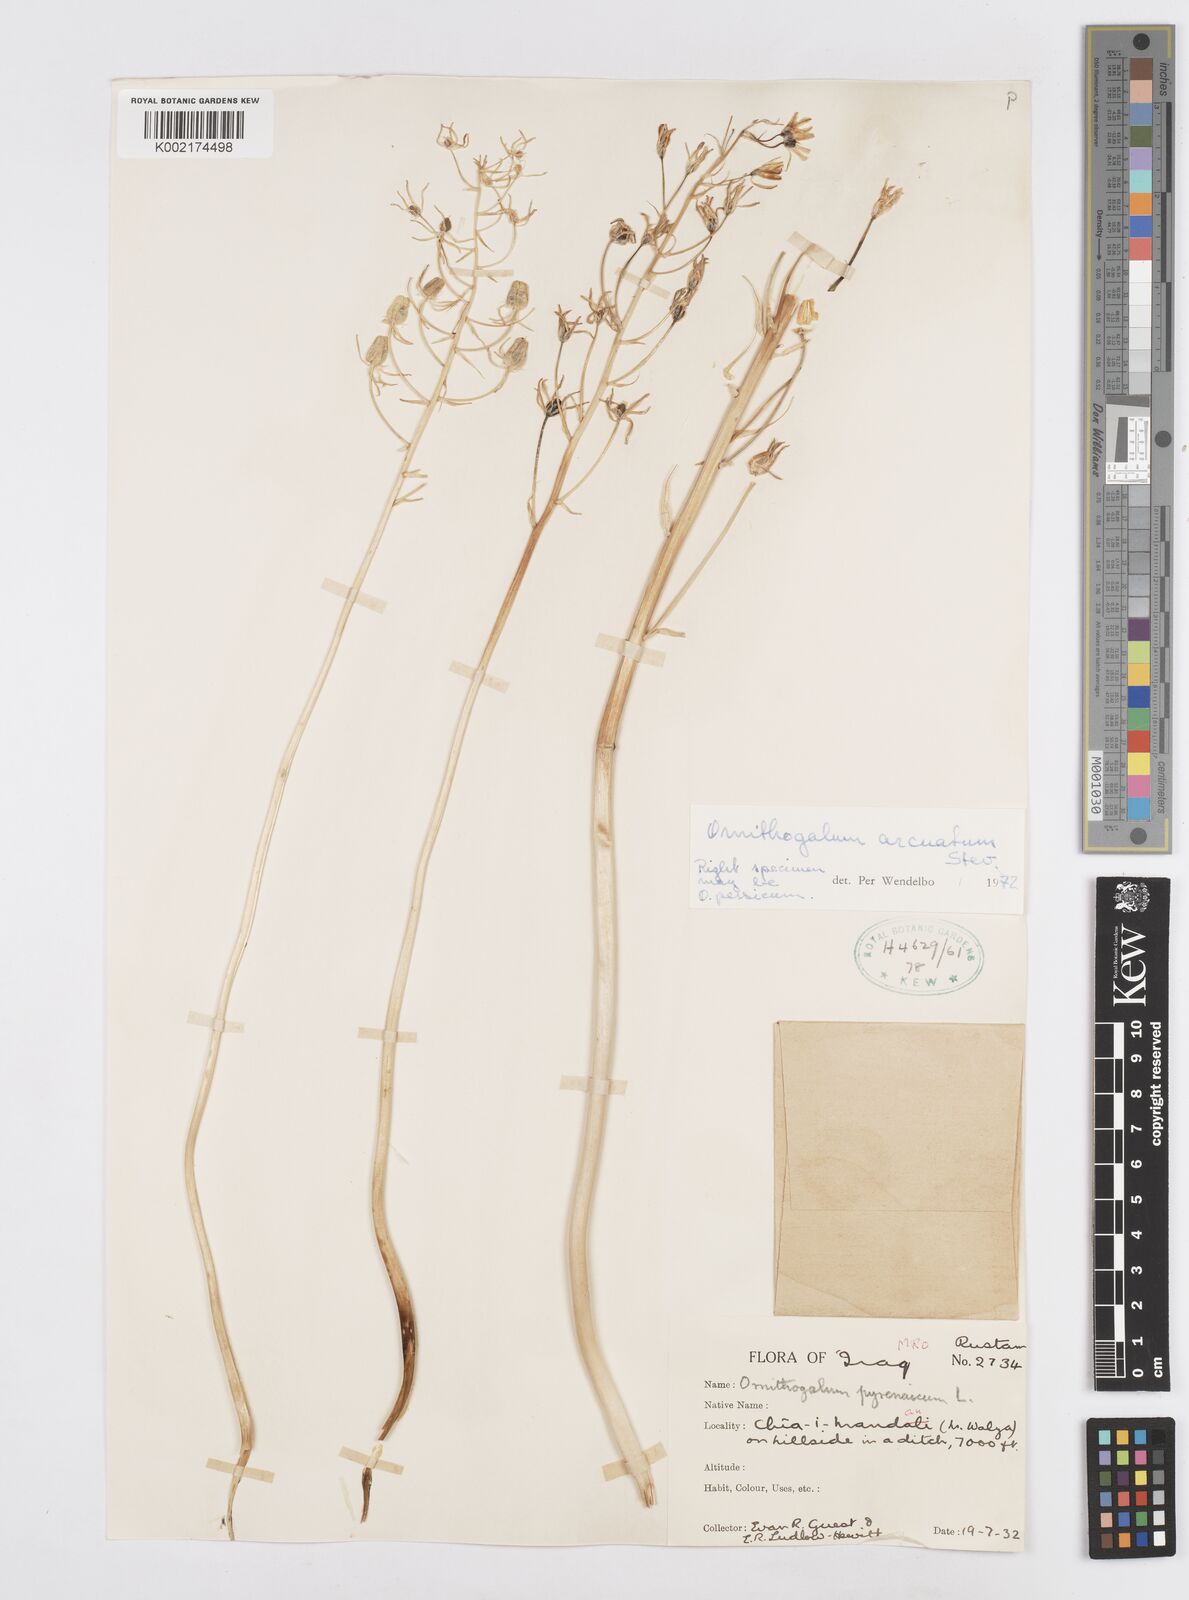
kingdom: Plantae
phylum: Tracheophyta
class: Liliopsida
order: Asparagales
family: Asparagaceae
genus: Ornithogalum
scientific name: Ornithogalum arcuatum
